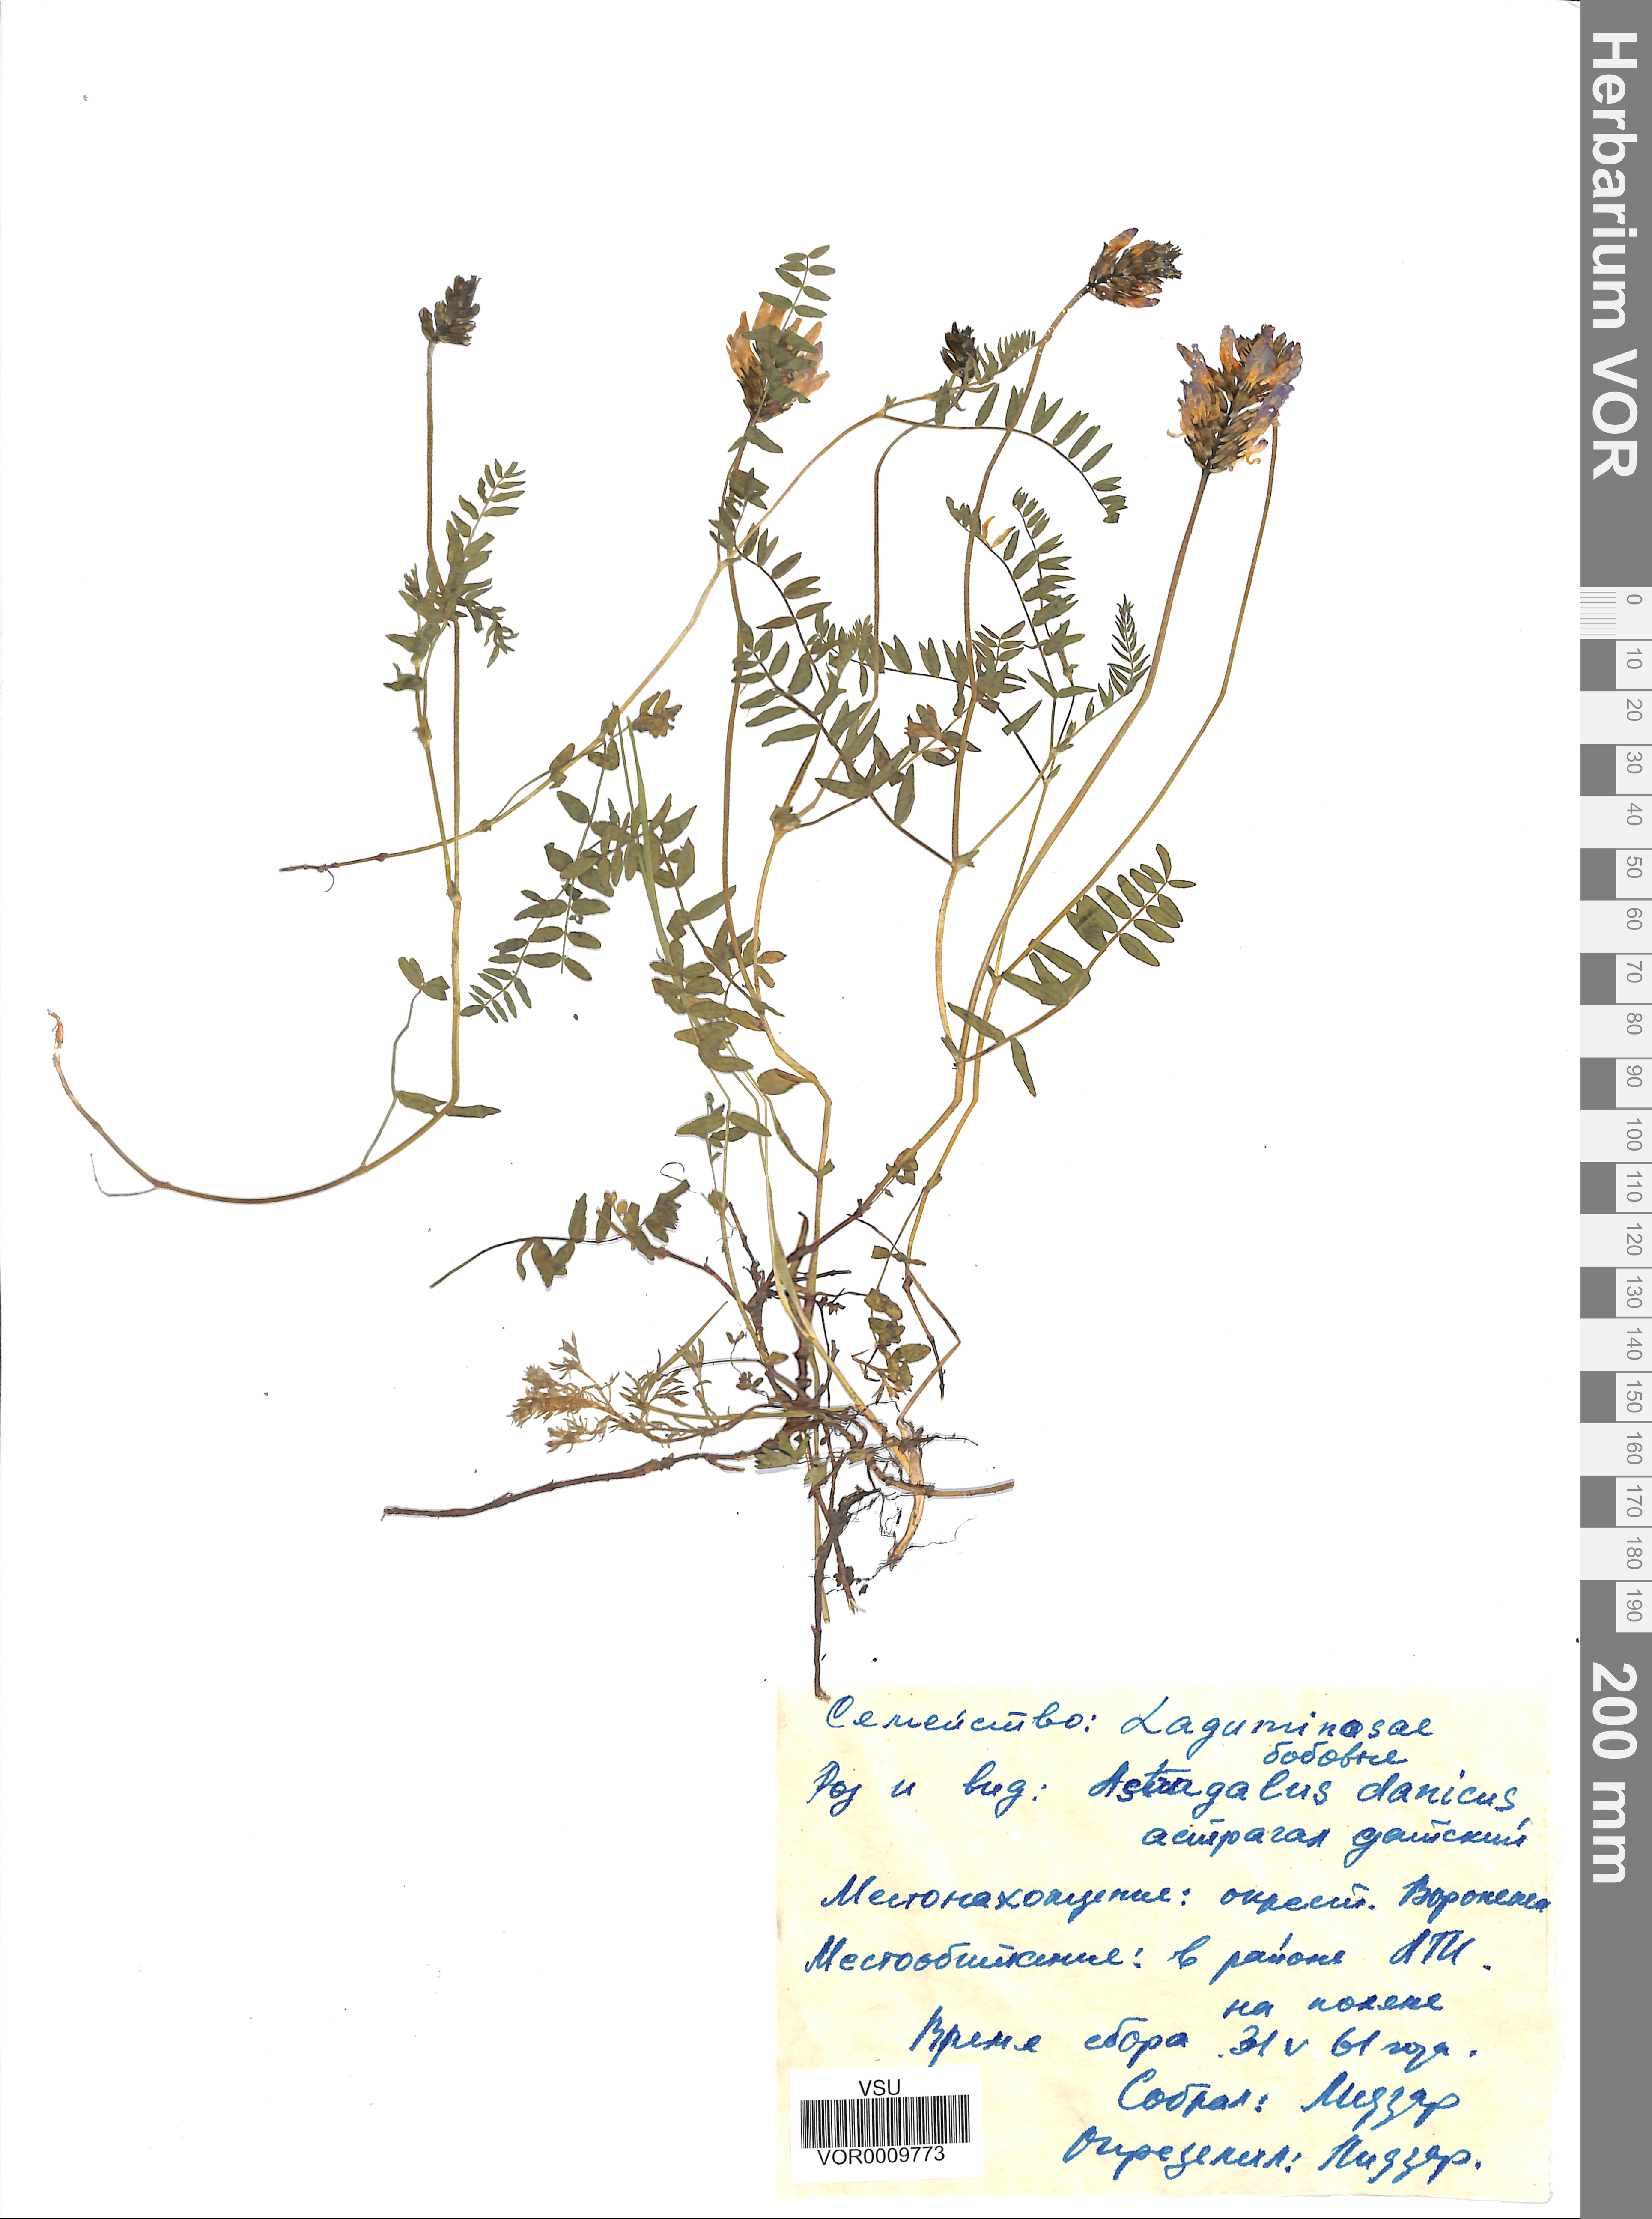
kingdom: Plantae
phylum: Tracheophyta
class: Magnoliopsida
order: Fabales
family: Fabaceae
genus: Astragalus
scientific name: Astragalus danicus
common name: Purple milk-vetch
